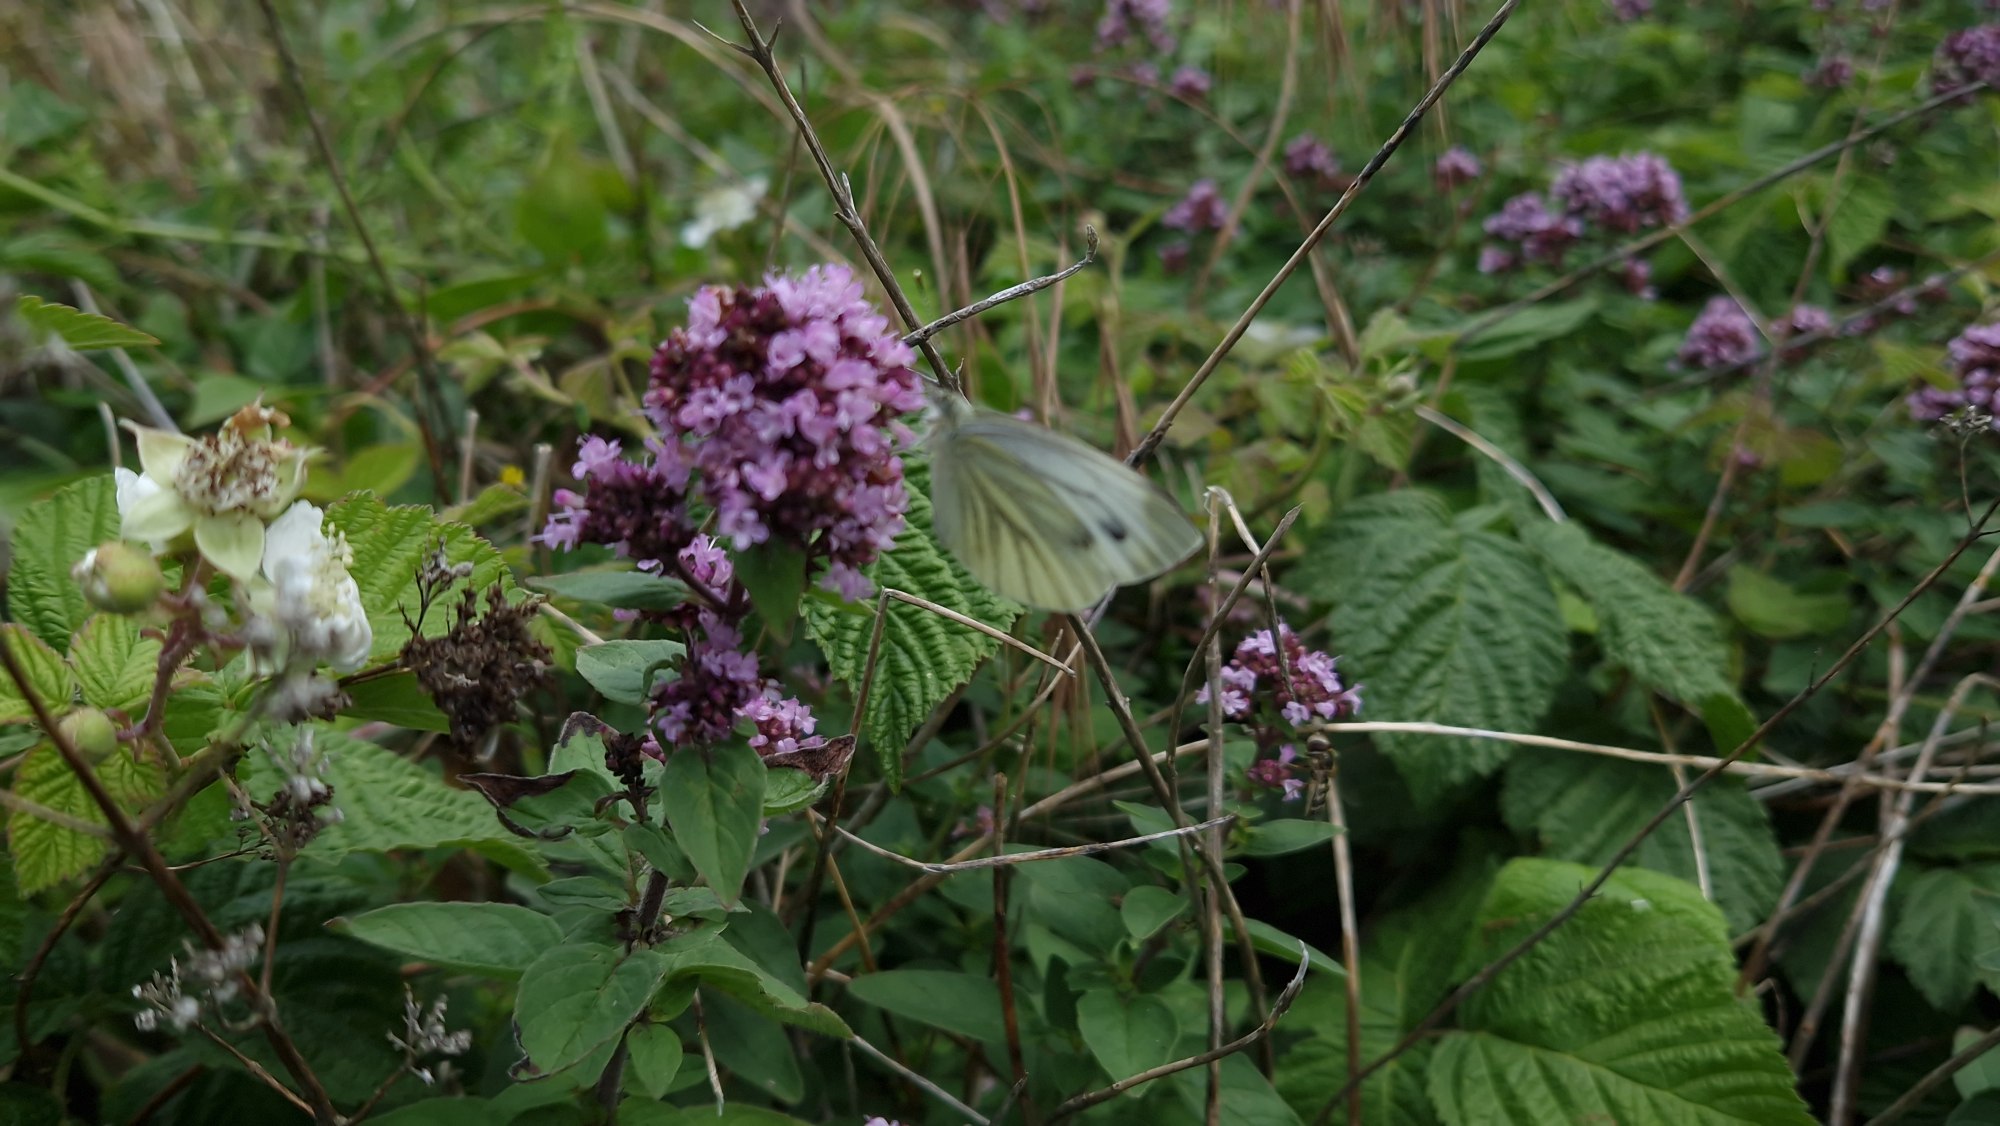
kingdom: Animalia
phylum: Arthropoda
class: Insecta
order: Lepidoptera
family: Pieridae
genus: Pieris
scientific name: Pieris napi
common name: Grønåret kålsommerfugl
